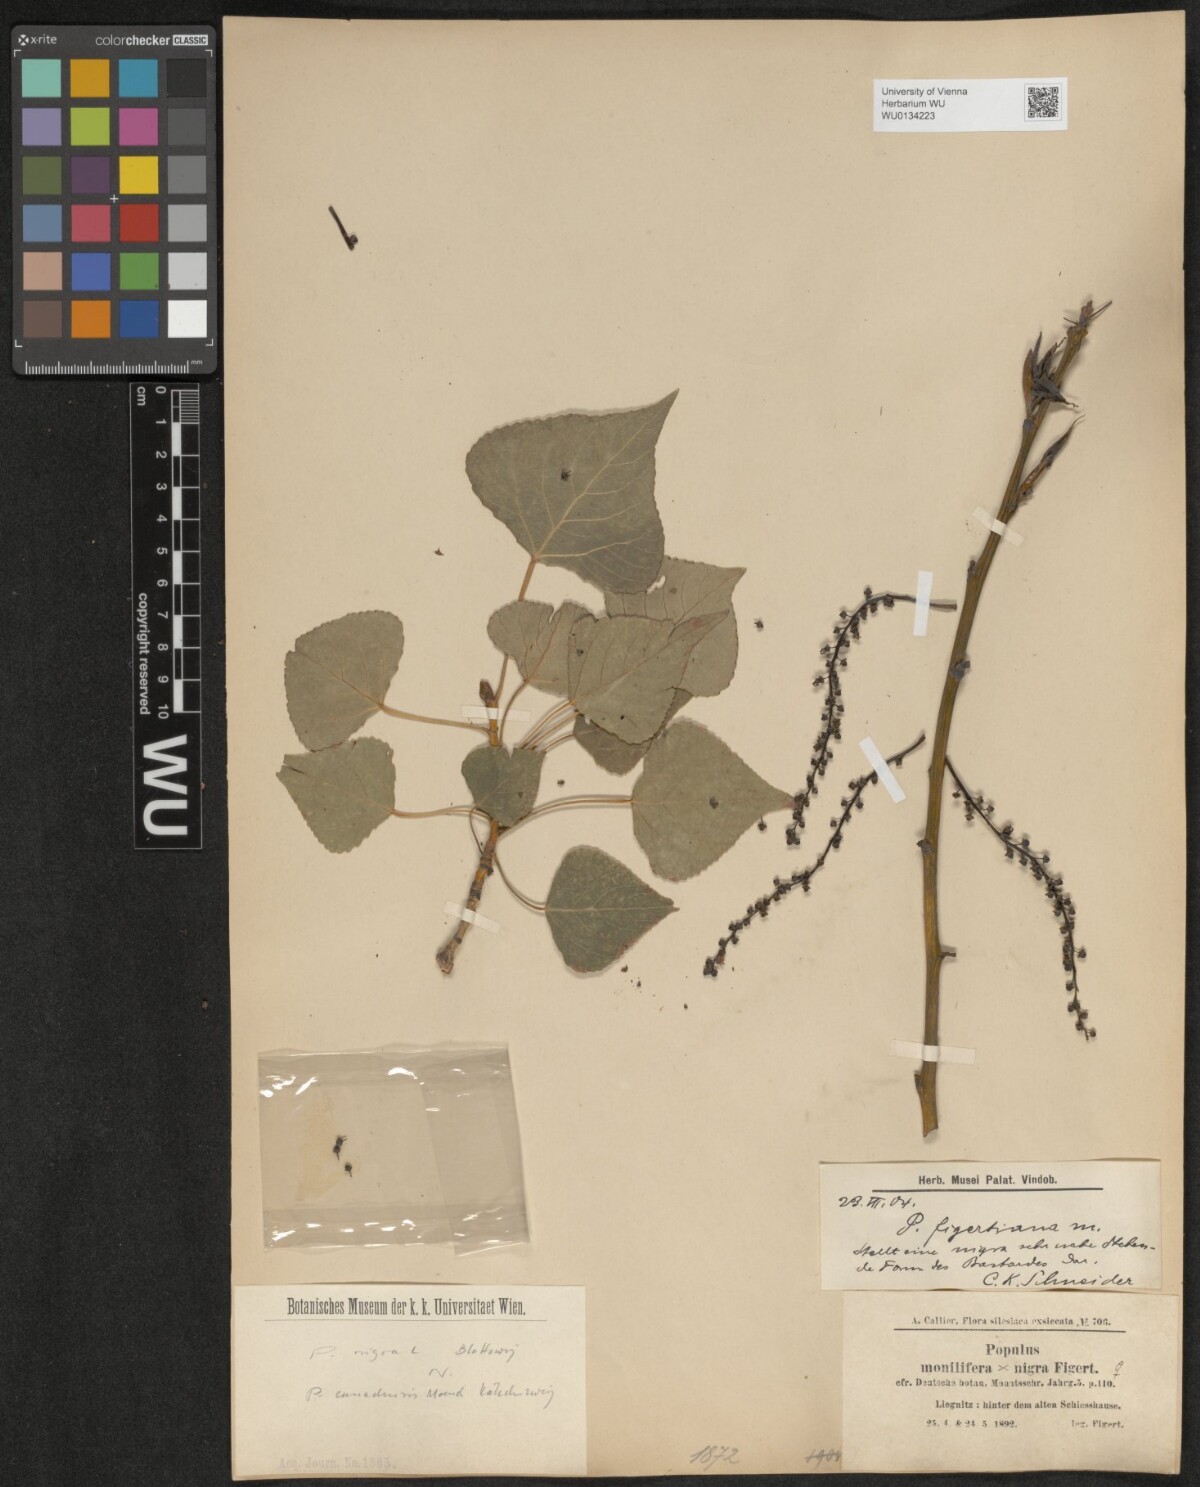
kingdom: Plantae
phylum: Tracheophyta
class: Magnoliopsida
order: Malpighiales
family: Salicaceae
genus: Populus
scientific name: Populus nigra
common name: Black poplar
